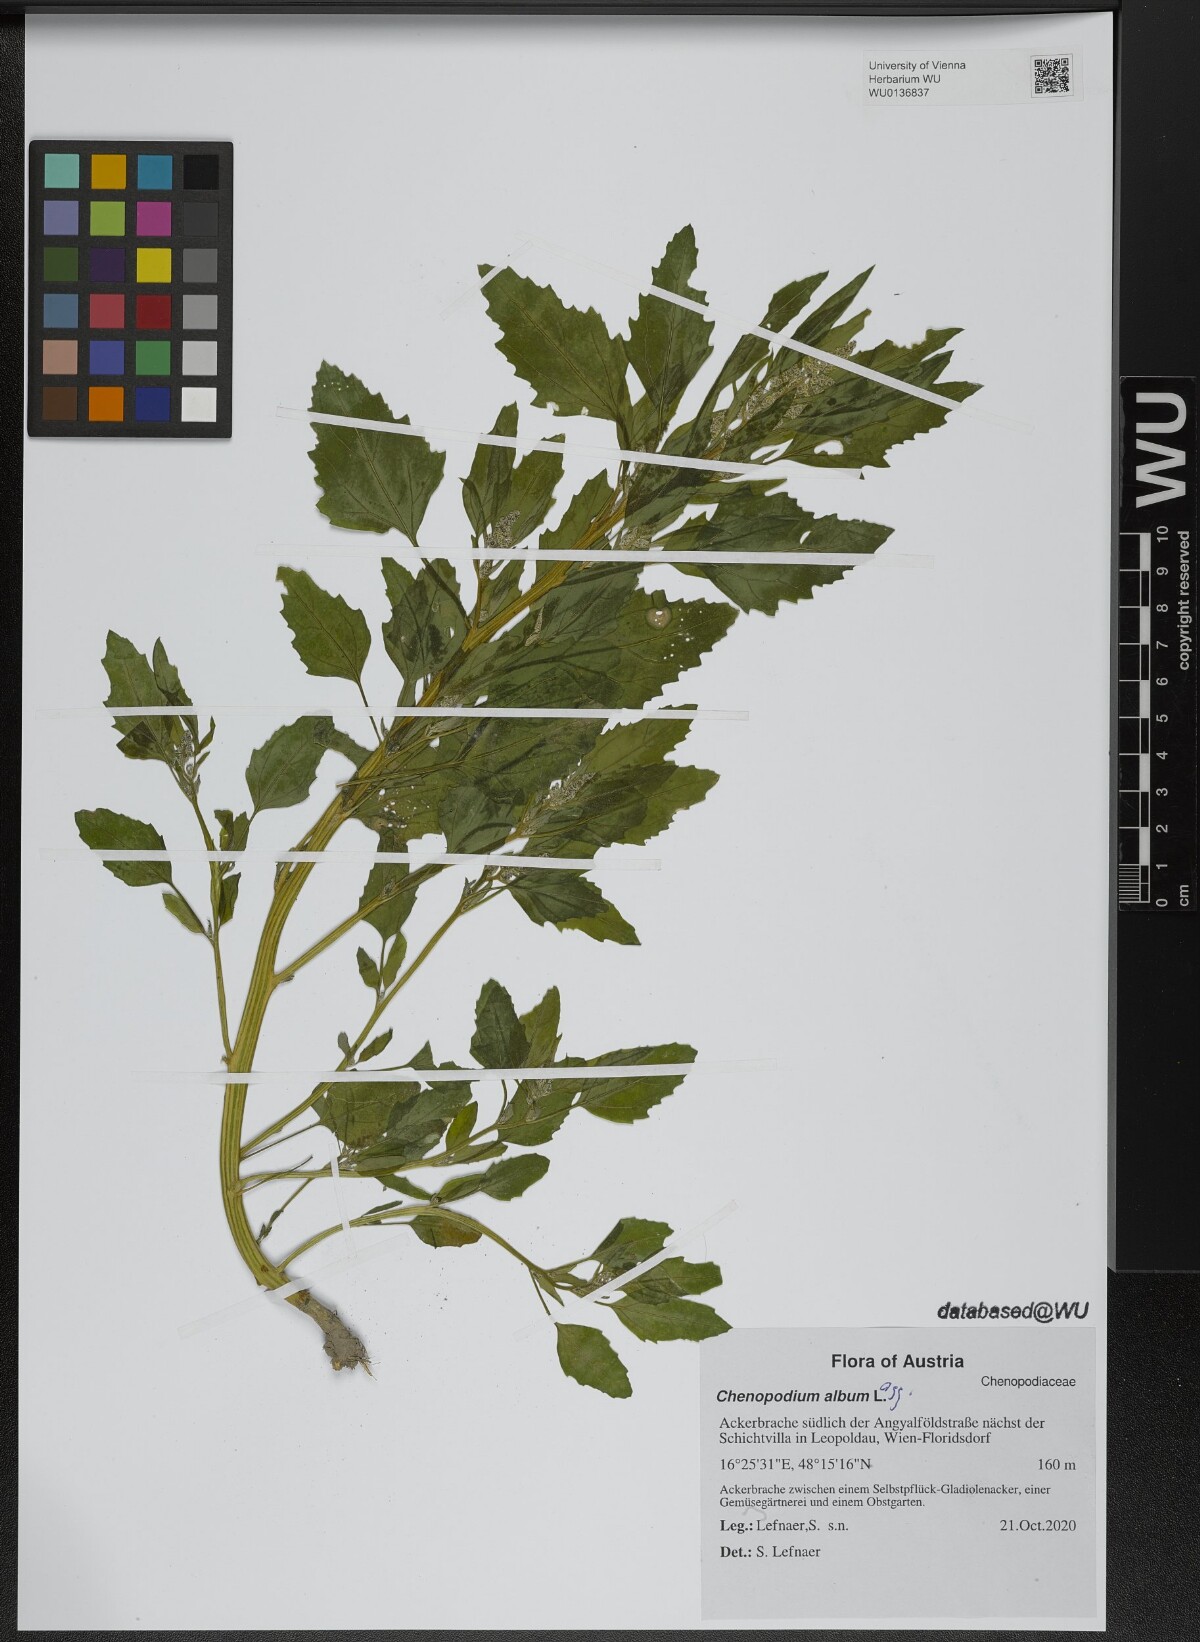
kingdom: Plantae
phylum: Tracheophyta
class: Magnoliopsida
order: Caryophyllales
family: Amaranthaceae
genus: Chenopodium
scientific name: Chenopodium album
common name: Fat-hen
